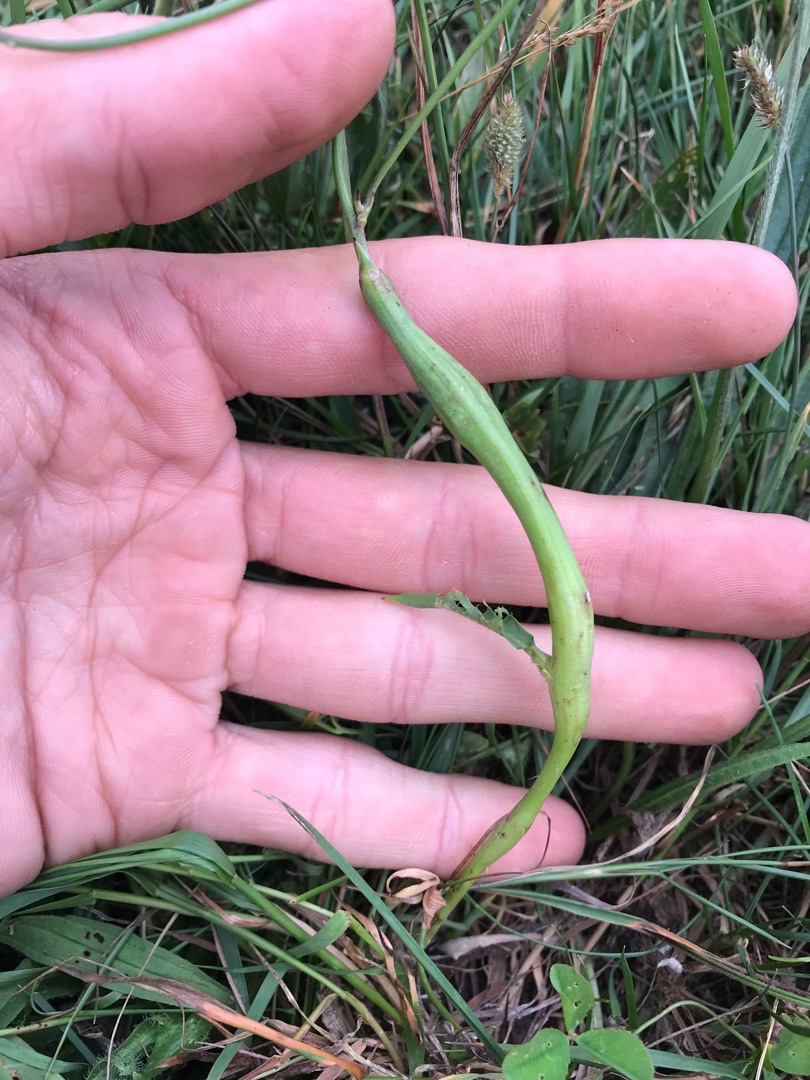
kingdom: Animalia
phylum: Arthropoda
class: Insecta
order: Hymenoptera
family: Cynipidae
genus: Phanacis
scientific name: Phanacis hypochoeridis
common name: Kongepengalhveps
